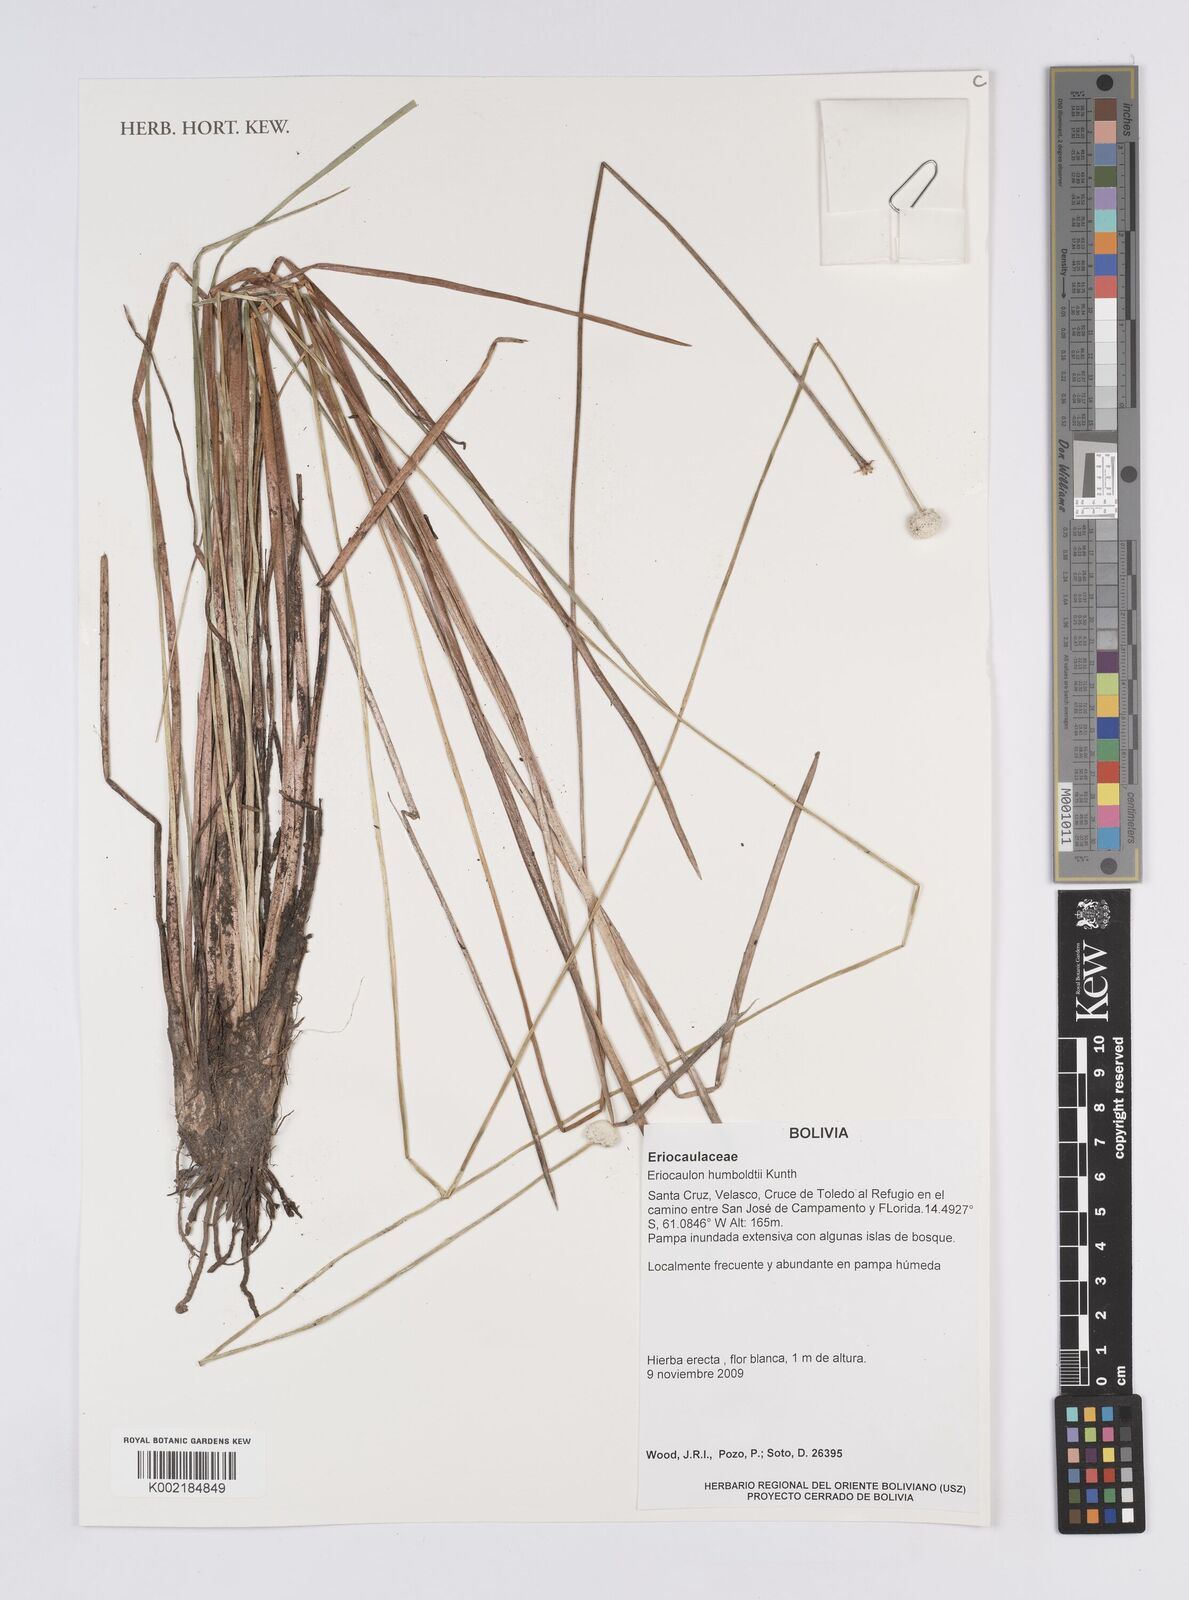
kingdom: Plantae
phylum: Tracheophyta
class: Liliopsida
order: Poales
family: Eriocaulaceae
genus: Eriocaulon
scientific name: Eriocaulon humboldtii
